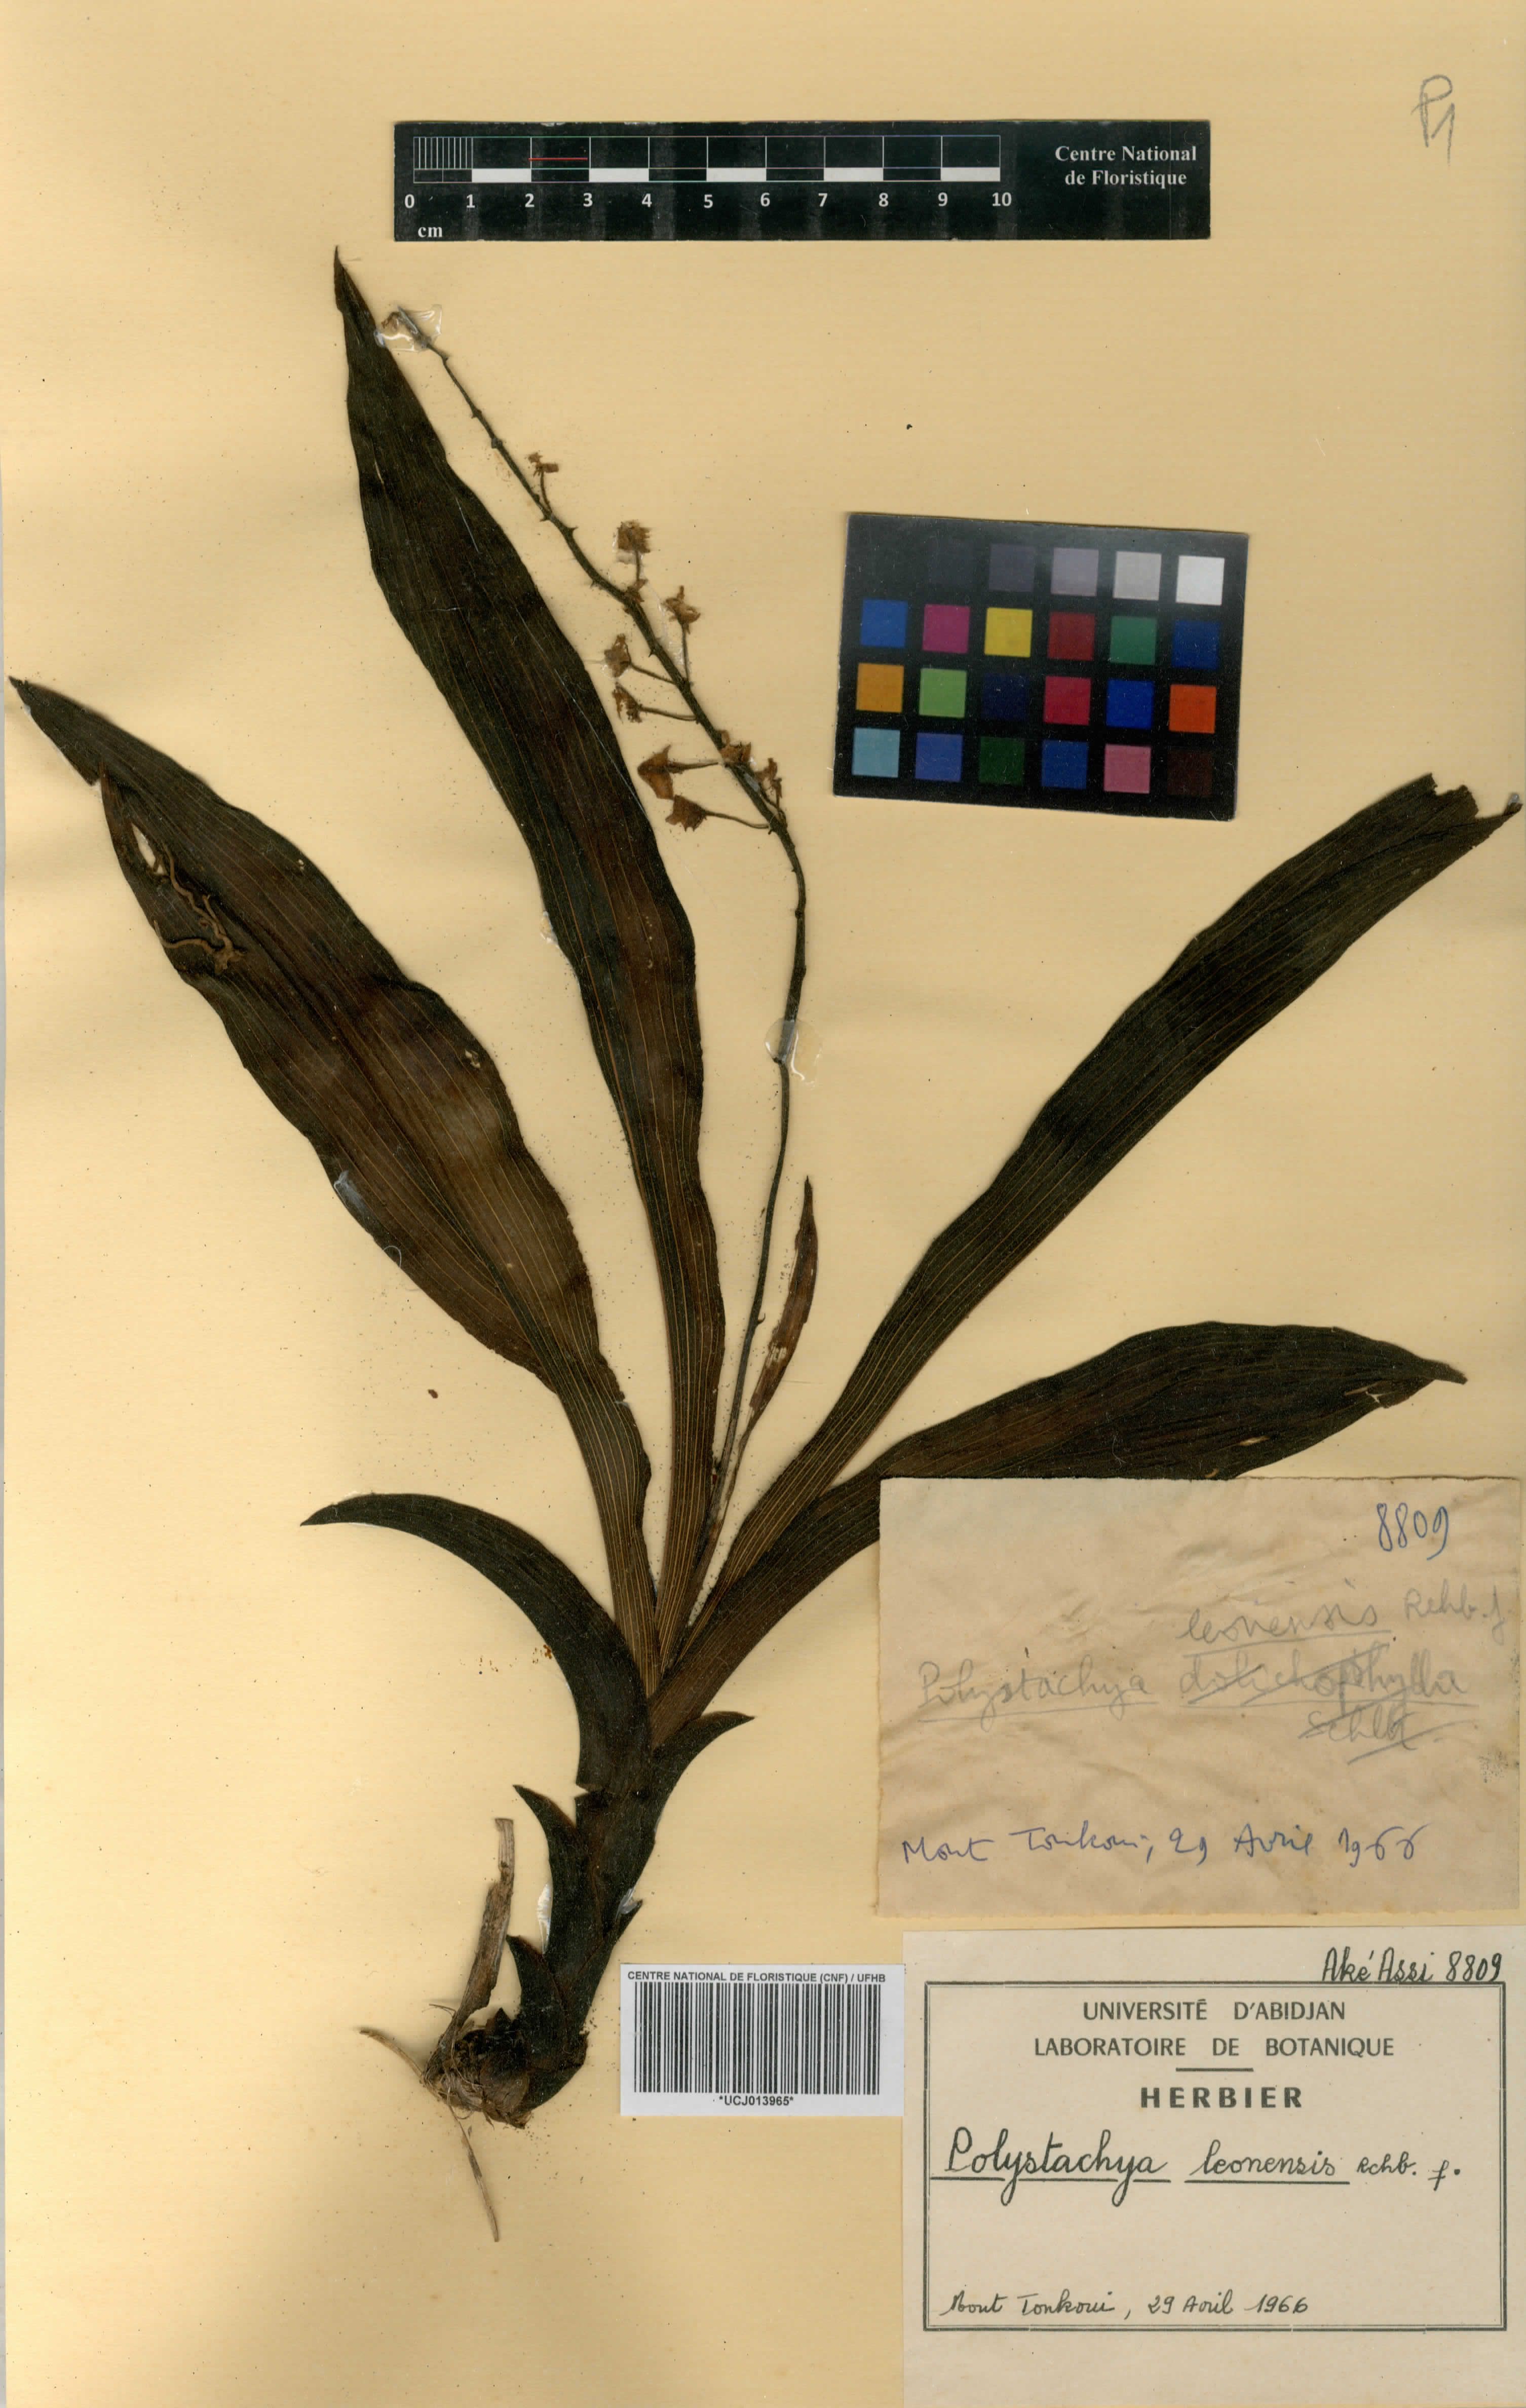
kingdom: Plantae
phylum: Tracheophyta
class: Liliopsida
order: Asparagales
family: Orchidaceae
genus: Polystachya
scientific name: Polystachya leonensis
